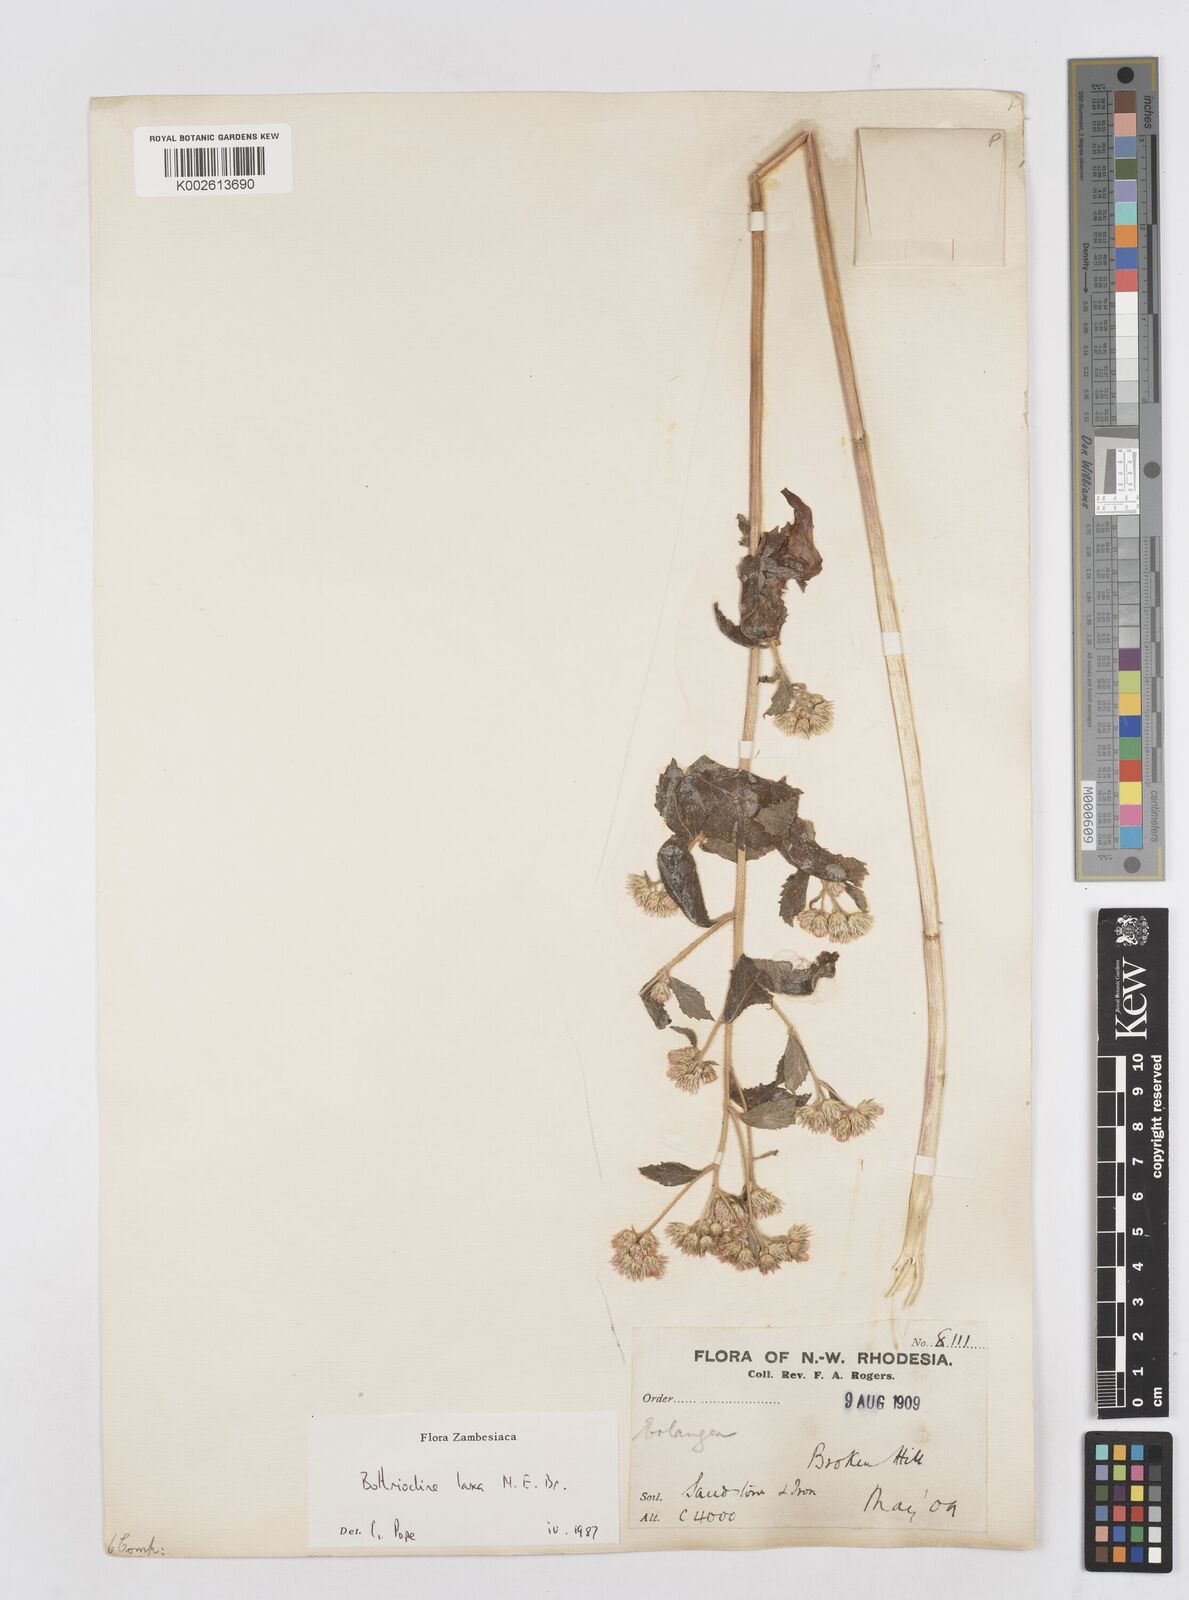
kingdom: Plantae
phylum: Tracheophyta
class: Magnoliopsida
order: Asterales
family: Asteraceae
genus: Bothriocline
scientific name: Bothriocline laxa
